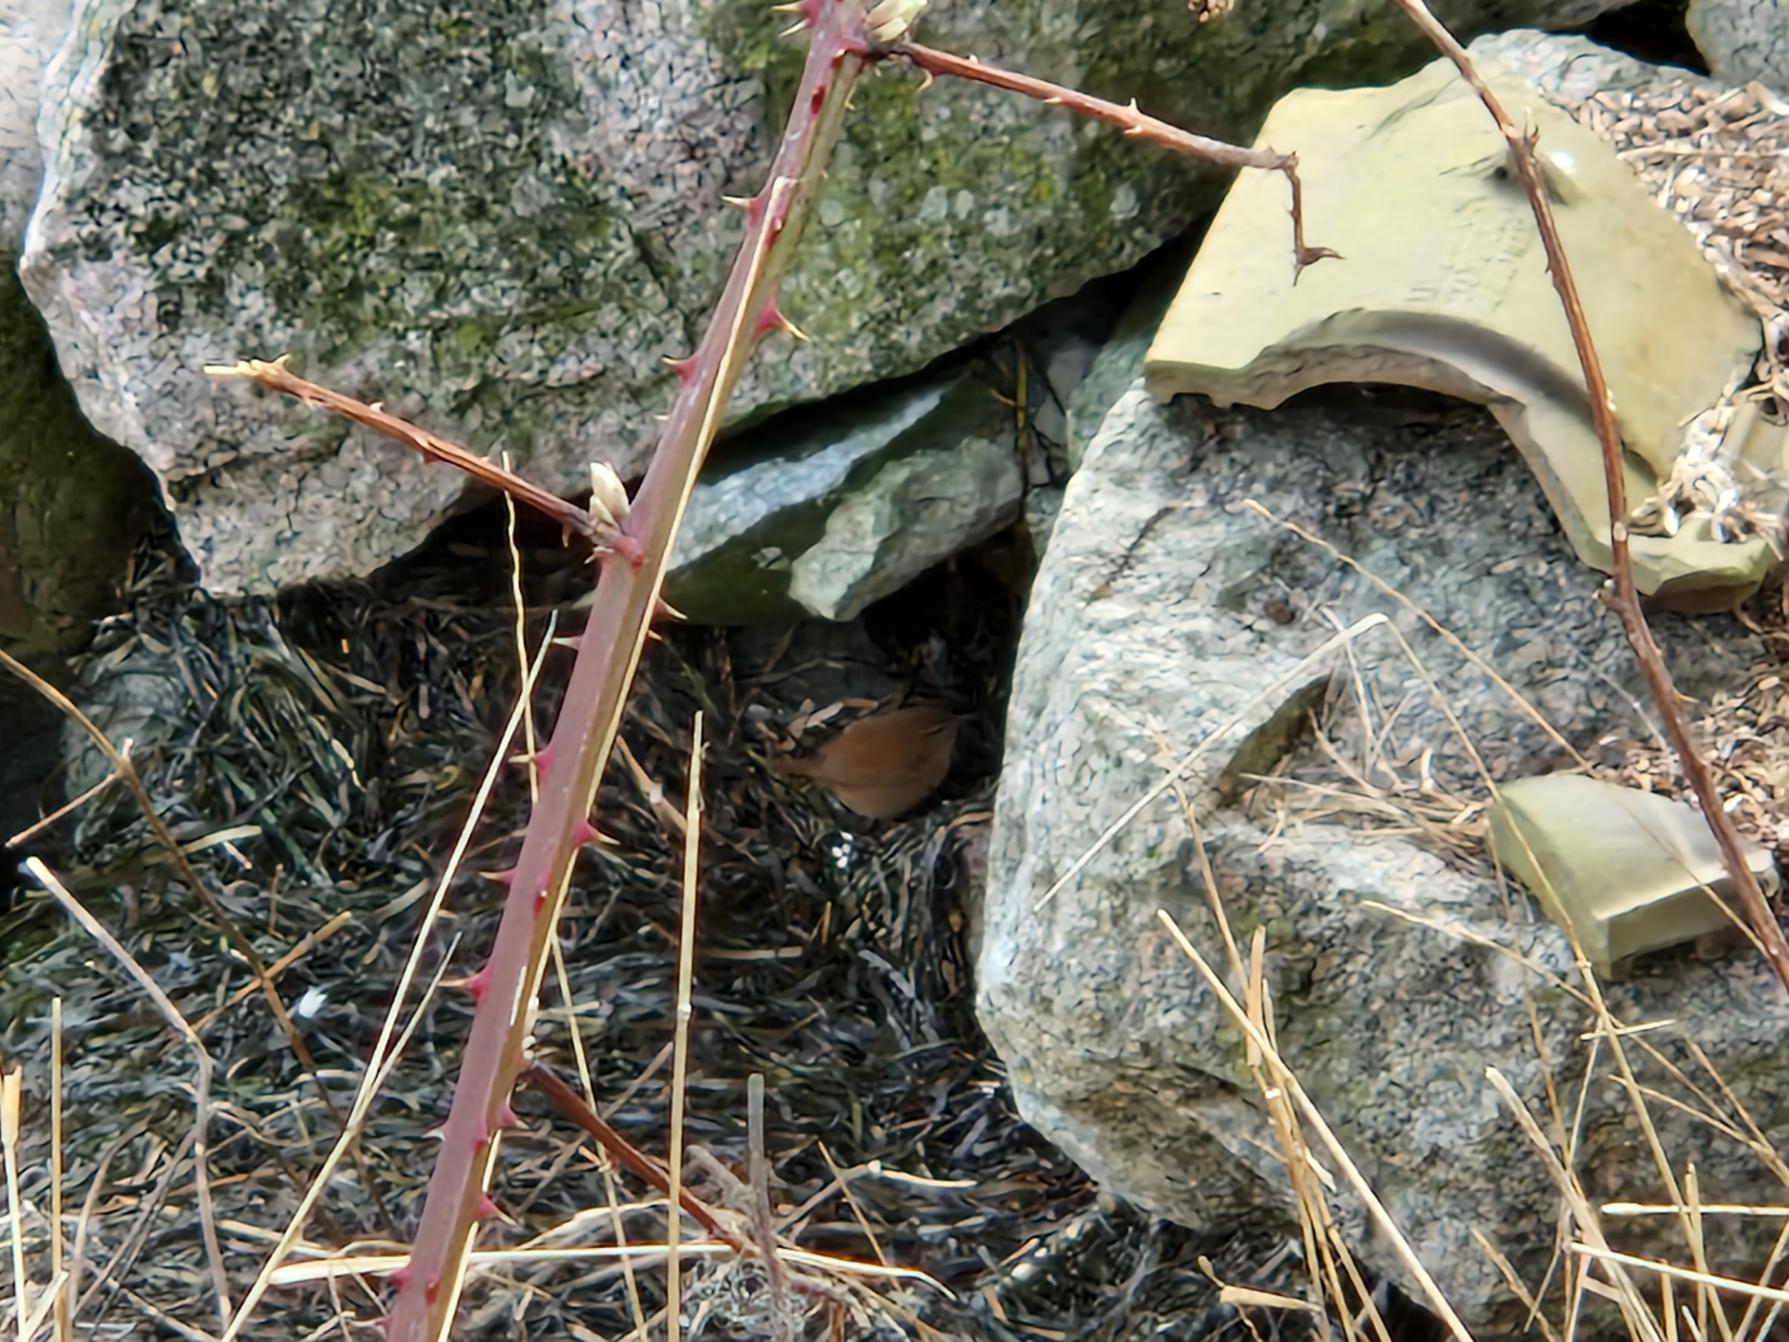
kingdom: Animalia
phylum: Chordata
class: Aves
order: Passeriformes
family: Troglodytidae
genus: Troglodytes
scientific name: Troglodytes troglodytes
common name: Gærdesmutte
